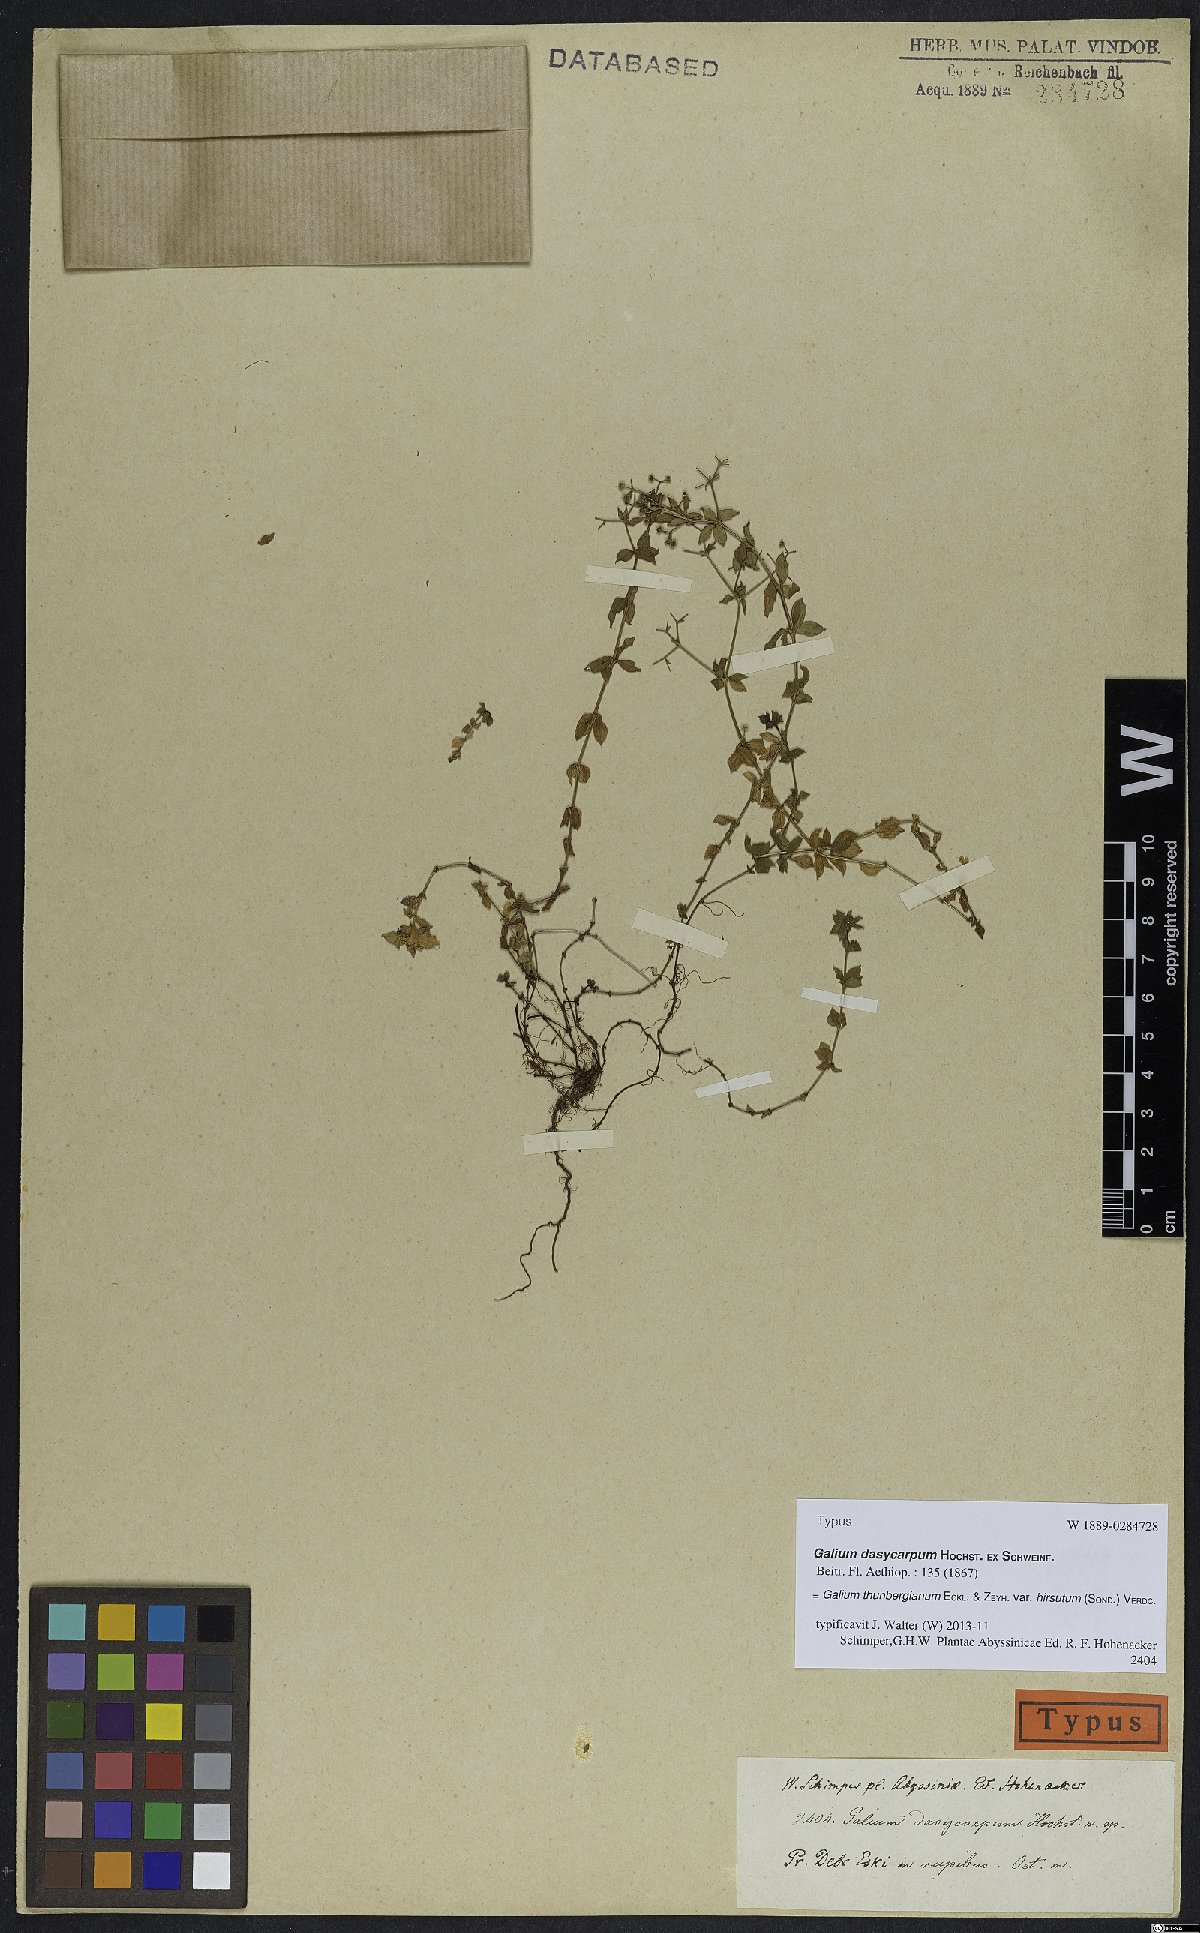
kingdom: Plantae
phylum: Tracheophyta
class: Magnoliopsida
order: Gentianales
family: Rubiaceae
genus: Galium
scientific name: Galium thunbergianum
